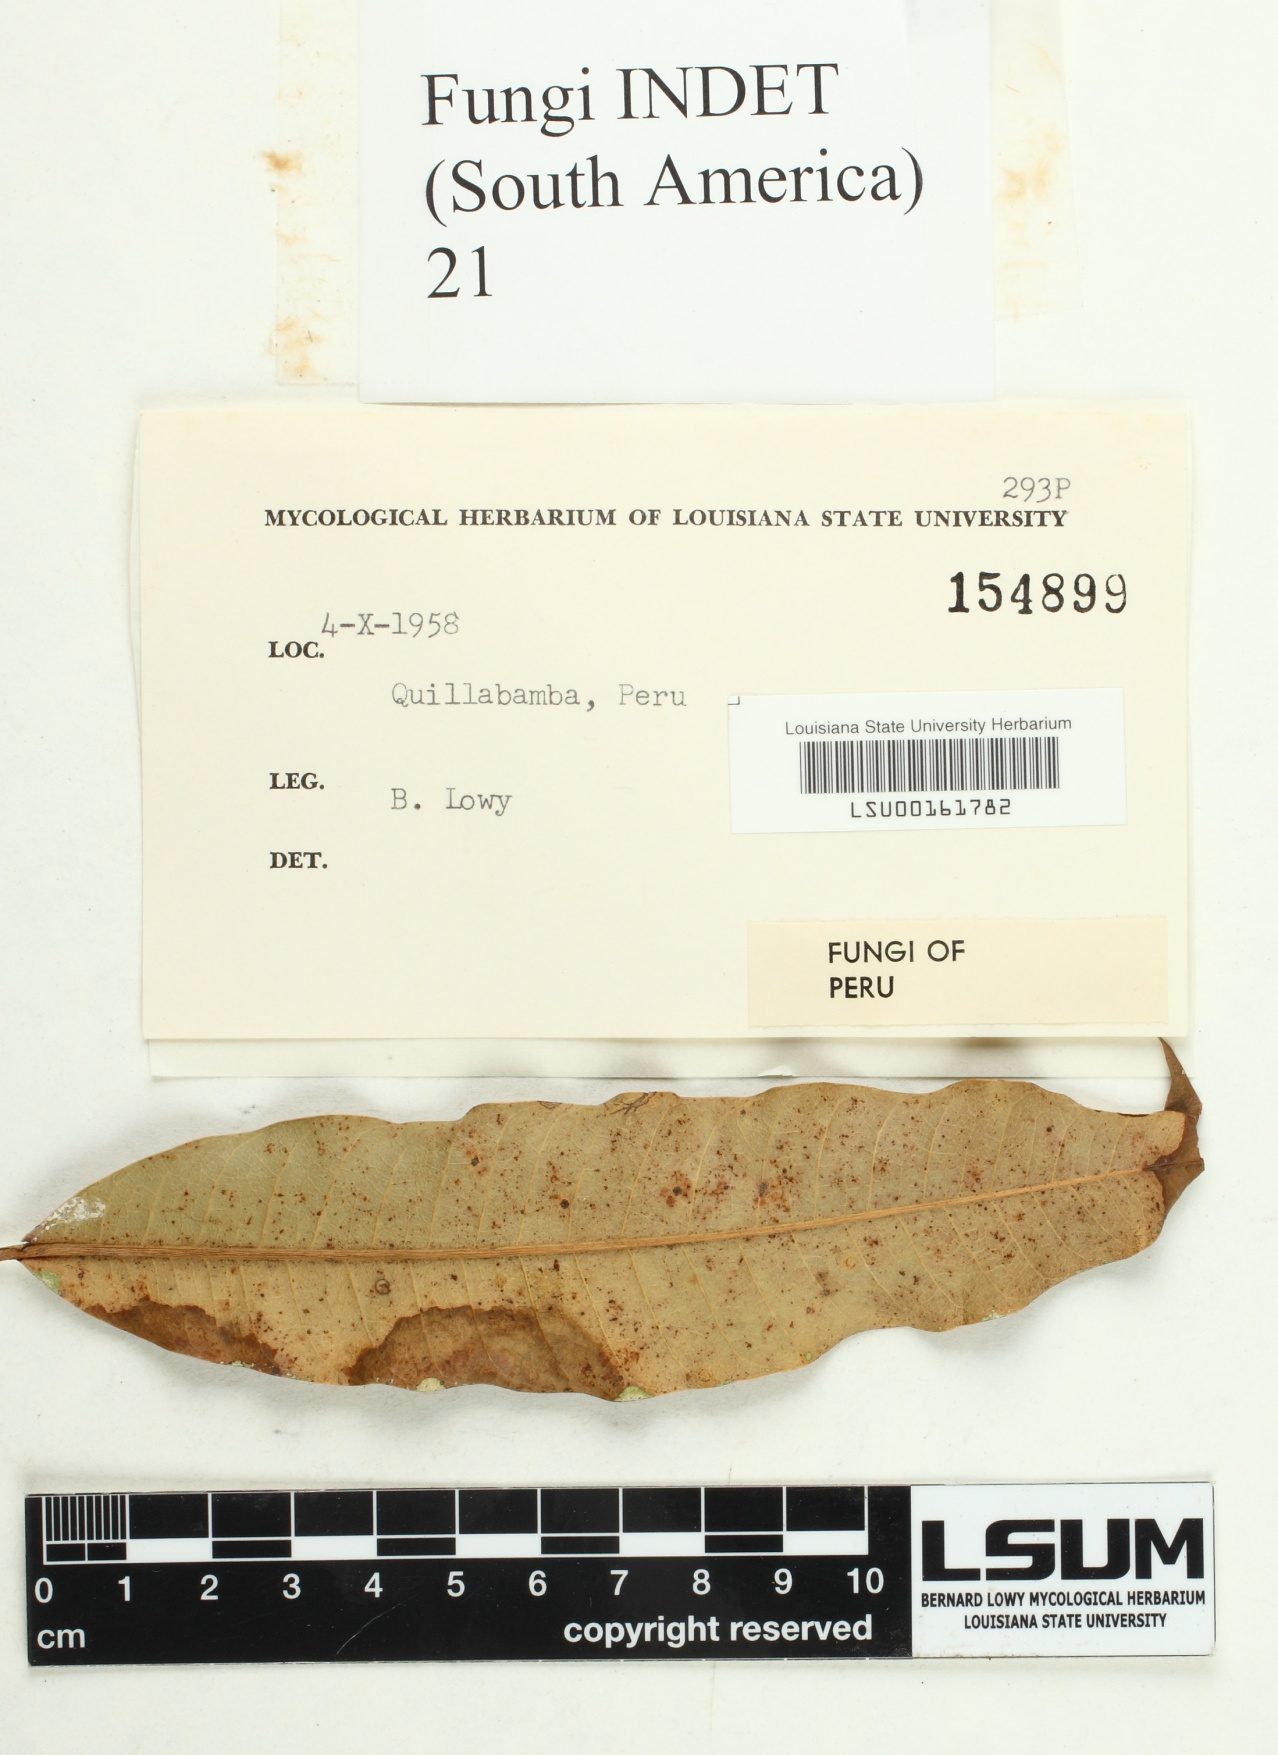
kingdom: Fungi
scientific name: Fungi
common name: Fungi
